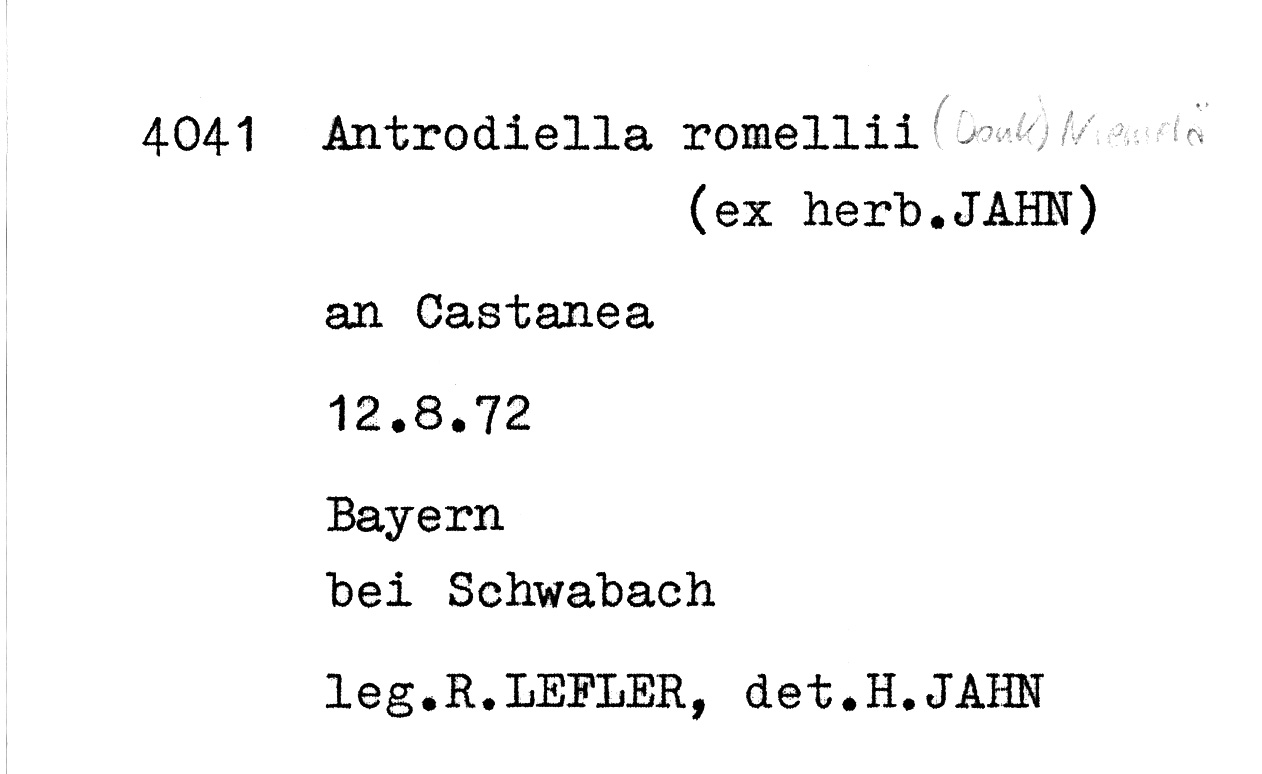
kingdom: Fungi
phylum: Basidiomycota
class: Agaricomycetes
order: Polyporales
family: Steccherinaceae
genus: Antrodiella
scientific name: Antrodiella romellii
